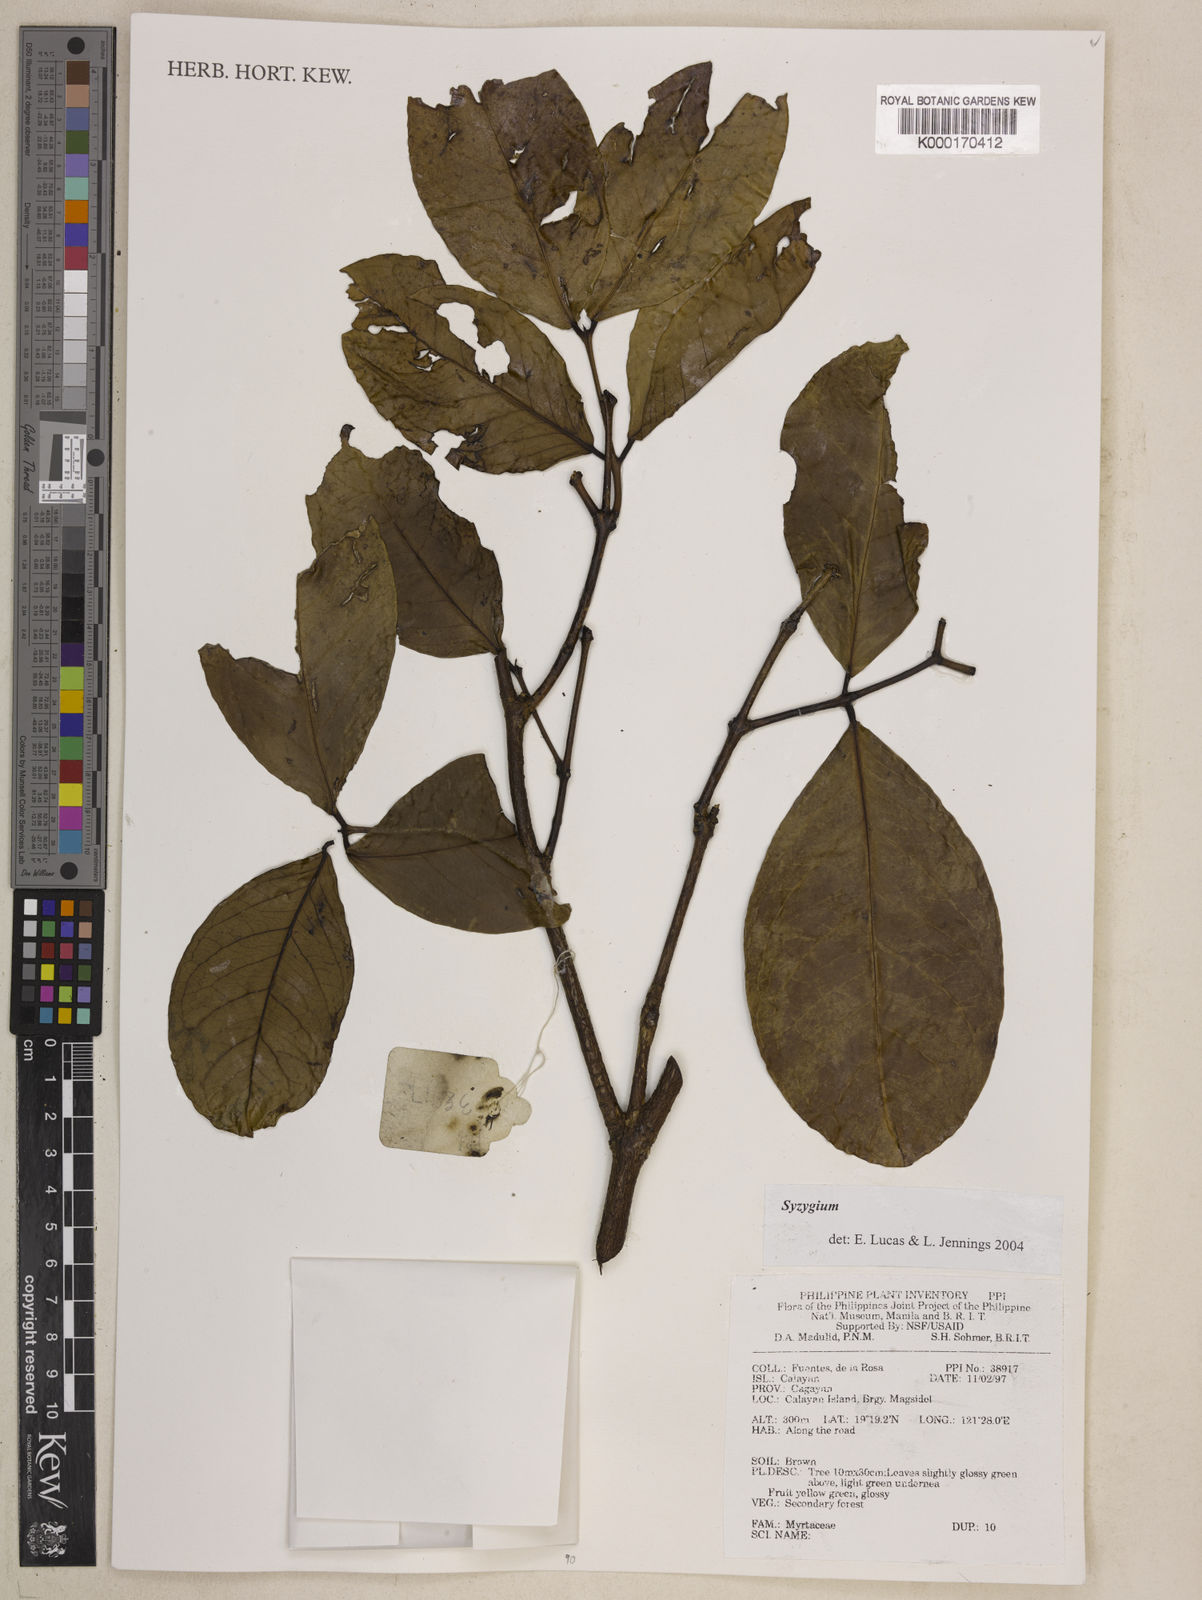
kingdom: Plantae
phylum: Tracheophyta
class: Magnoliopsida
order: Myrtales
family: Myrtaceae
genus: Syzygium
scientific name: Syzygium
